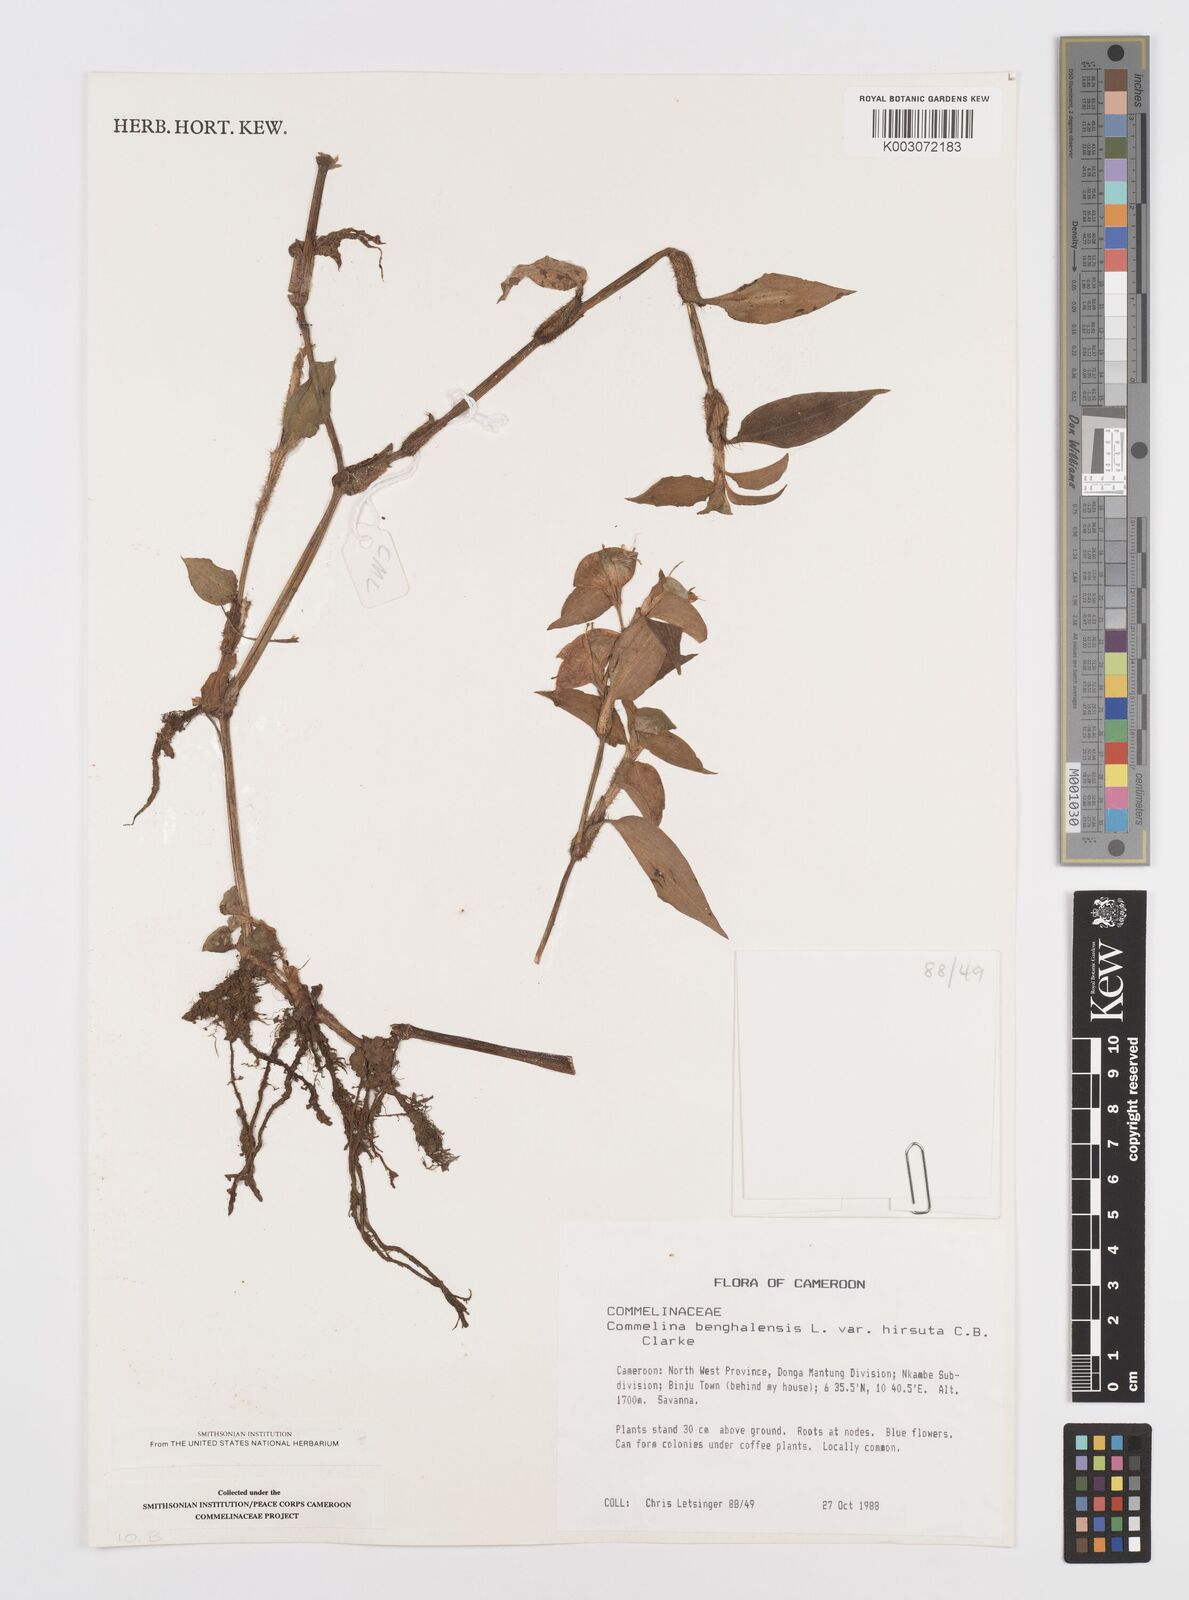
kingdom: Plantae
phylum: Tracheophyta
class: Liliopsida
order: Commelinales
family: Commelinaceae
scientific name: Commelinaceae
